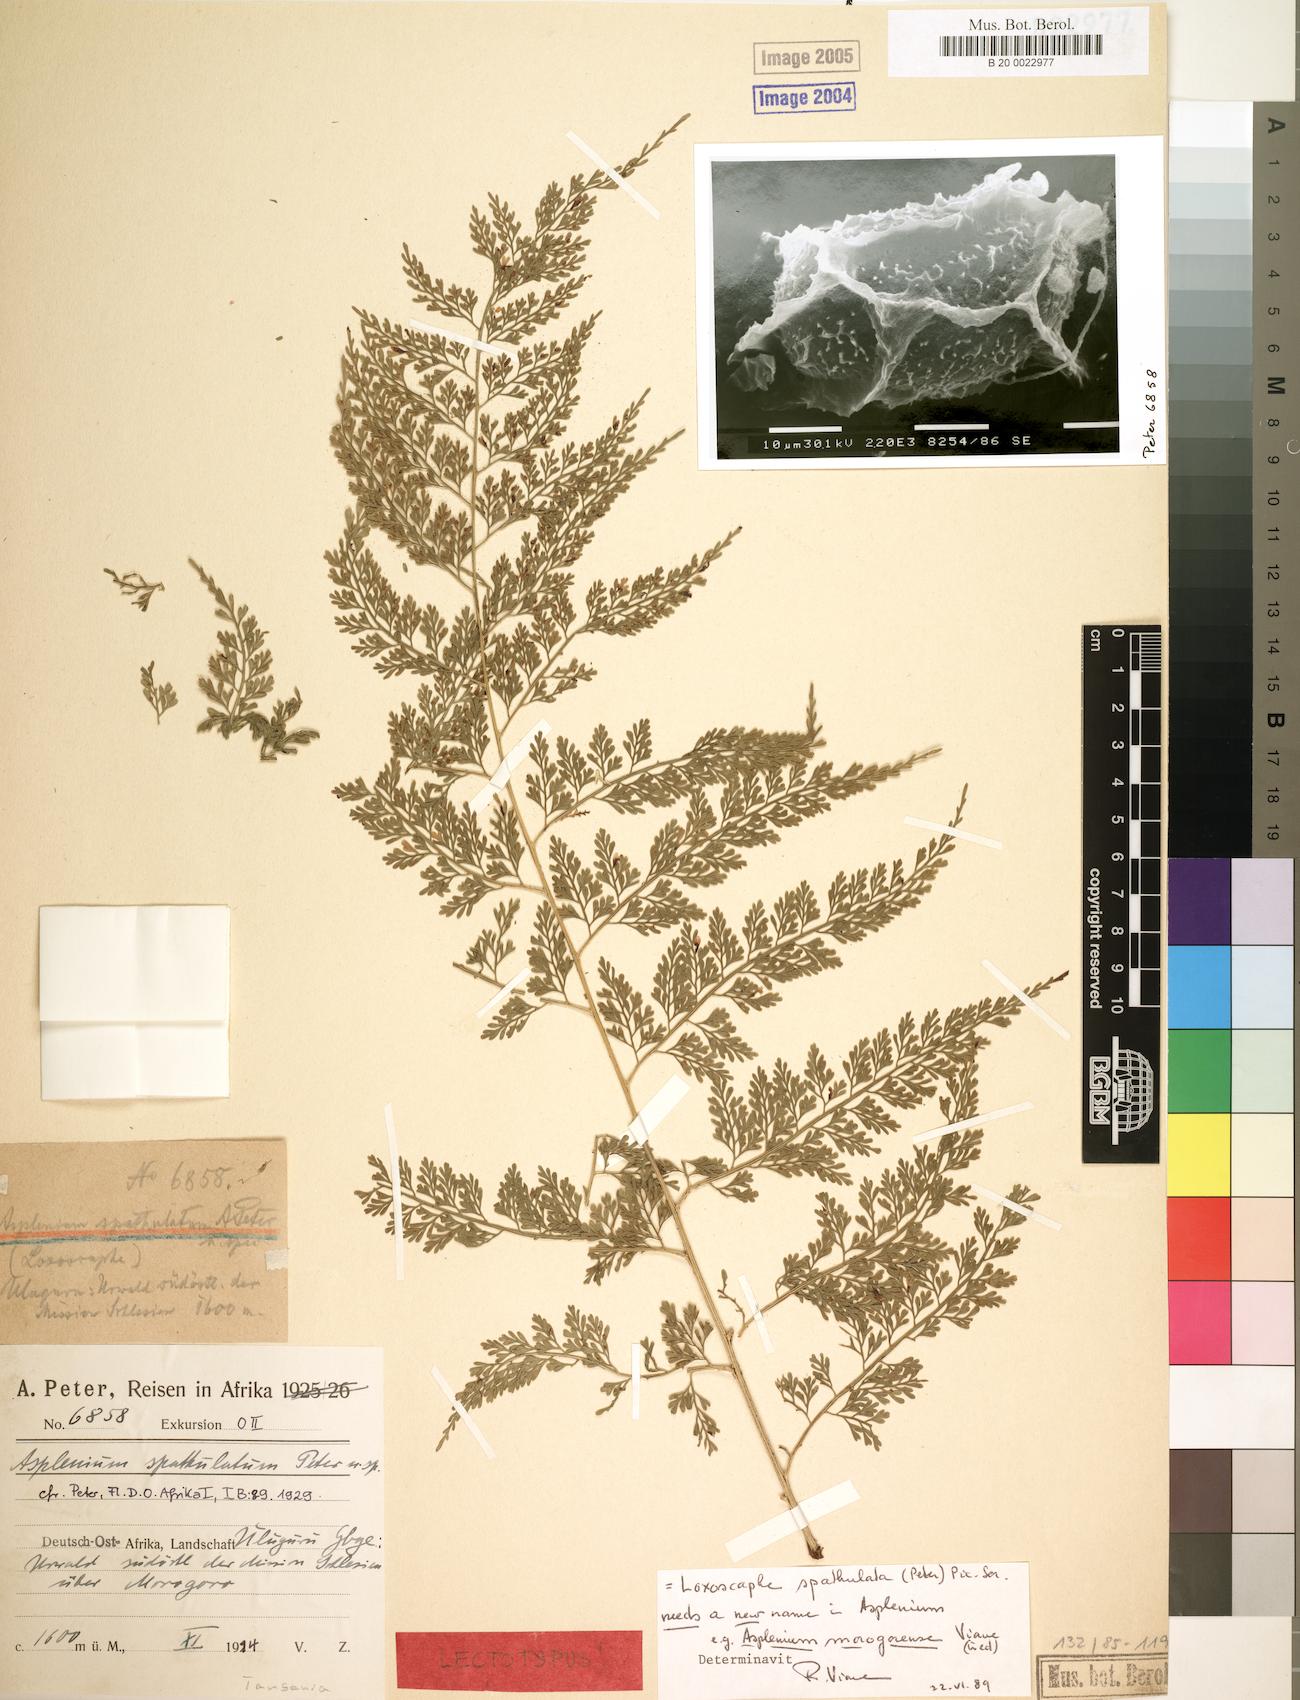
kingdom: Plantae
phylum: Tracheophyta
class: Polypodiopsida
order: Polypodiales
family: Aspleniaceae
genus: Asplenium
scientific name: Asplenium hypomelas
